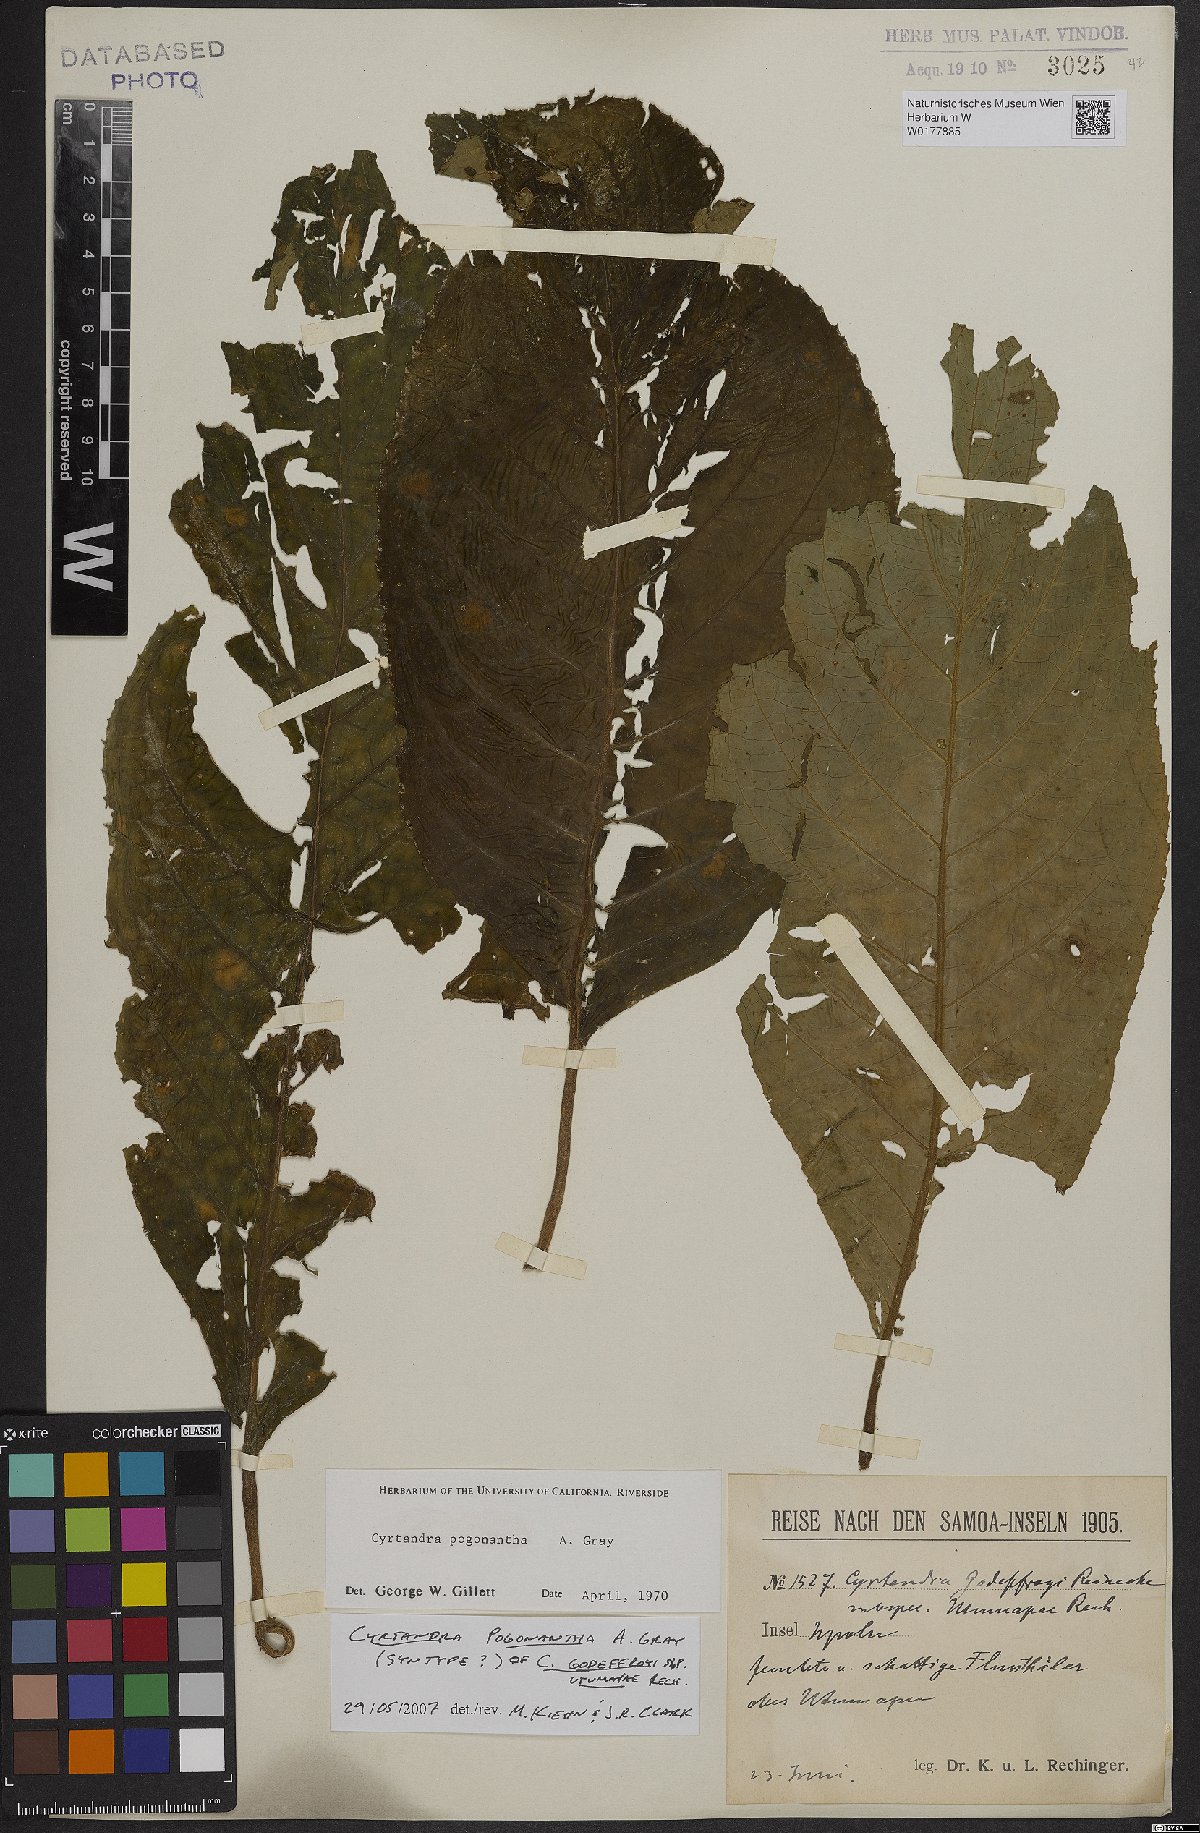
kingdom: Plantae
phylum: Tracheophyta
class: Magnoliopsida
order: Lamiales
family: Gesneriaceae
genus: Cyrtandra
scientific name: Cyrtandra pogonantha
